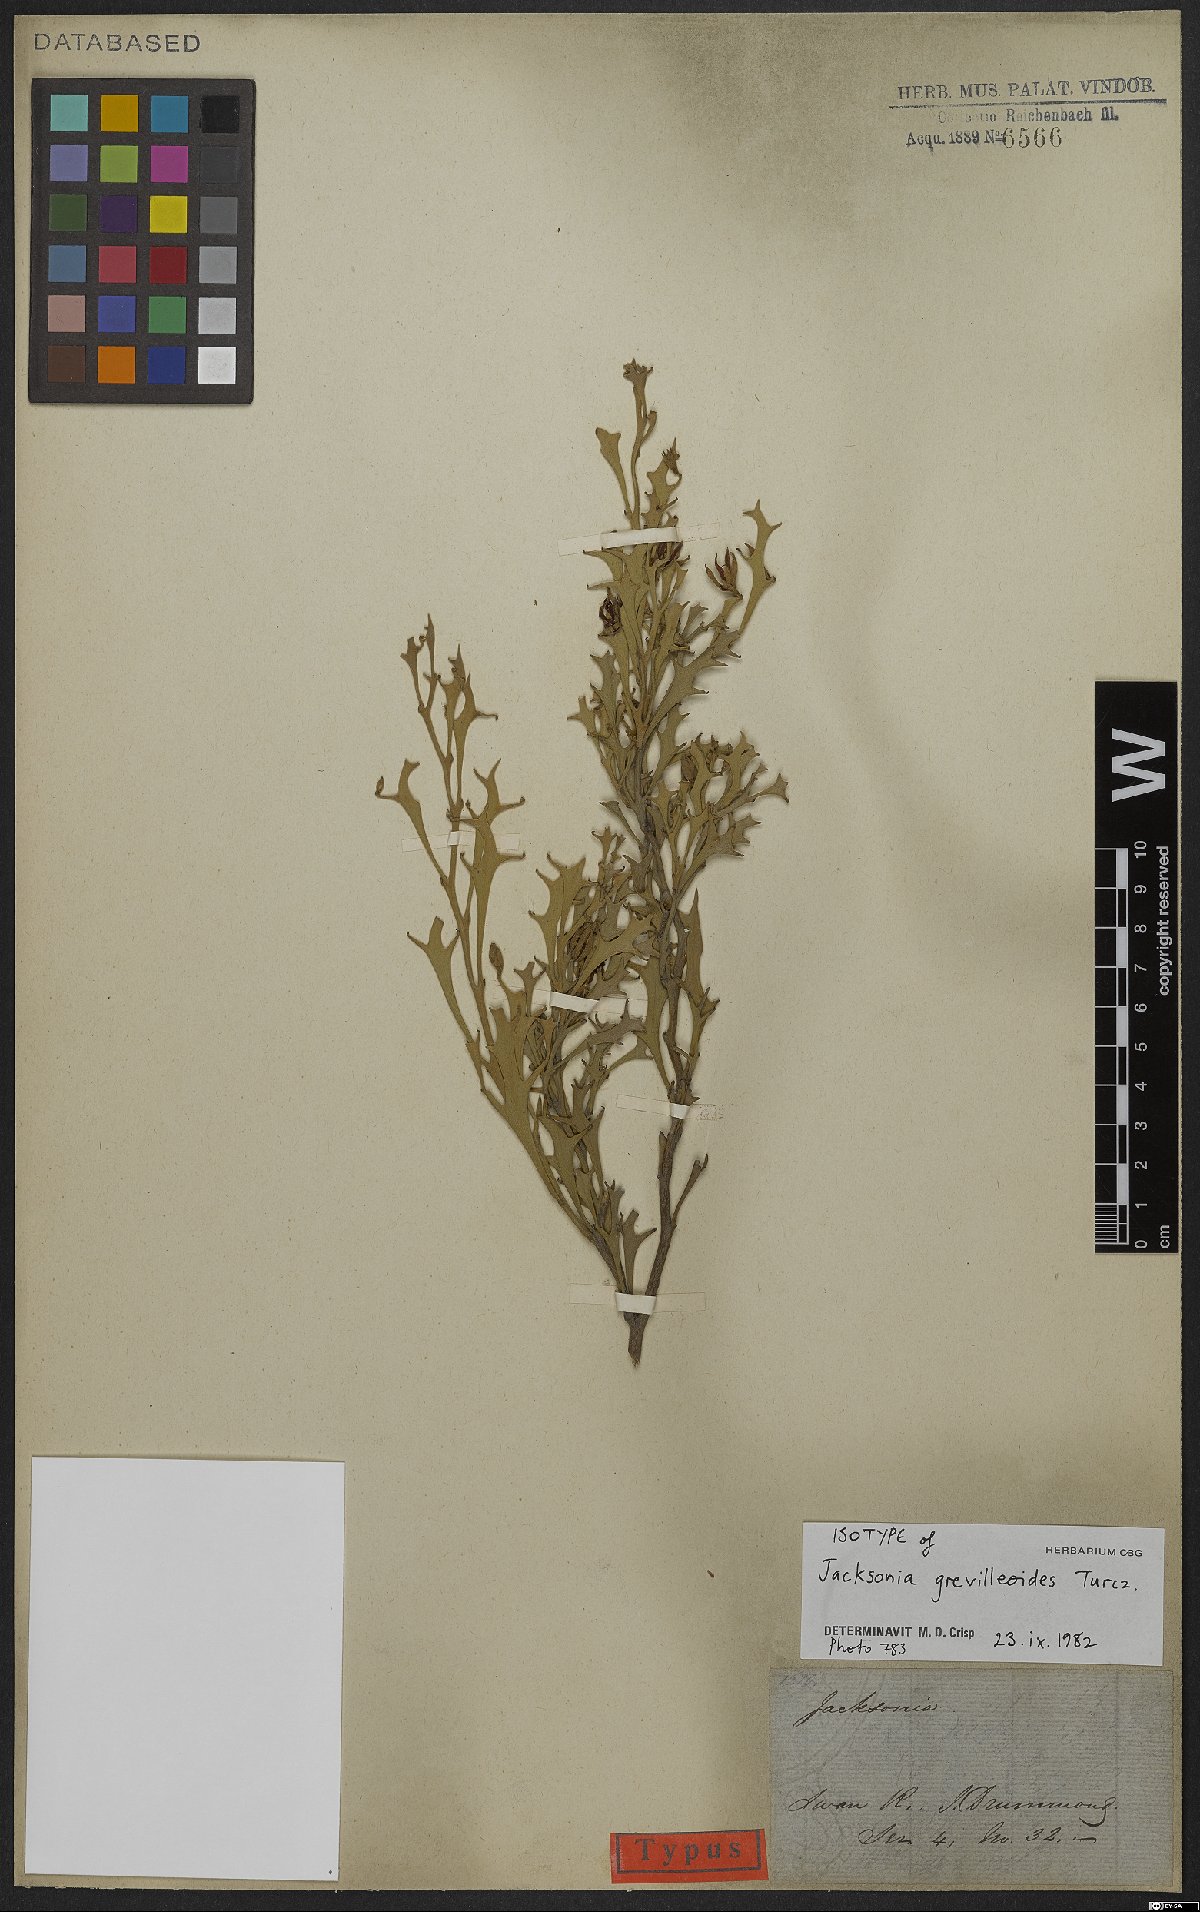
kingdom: Plantae
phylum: Tracheophyta
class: Magnoliopsida
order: Fabales
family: Fabaceae
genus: Jacksonia
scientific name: Jacksonia grevilleoides
